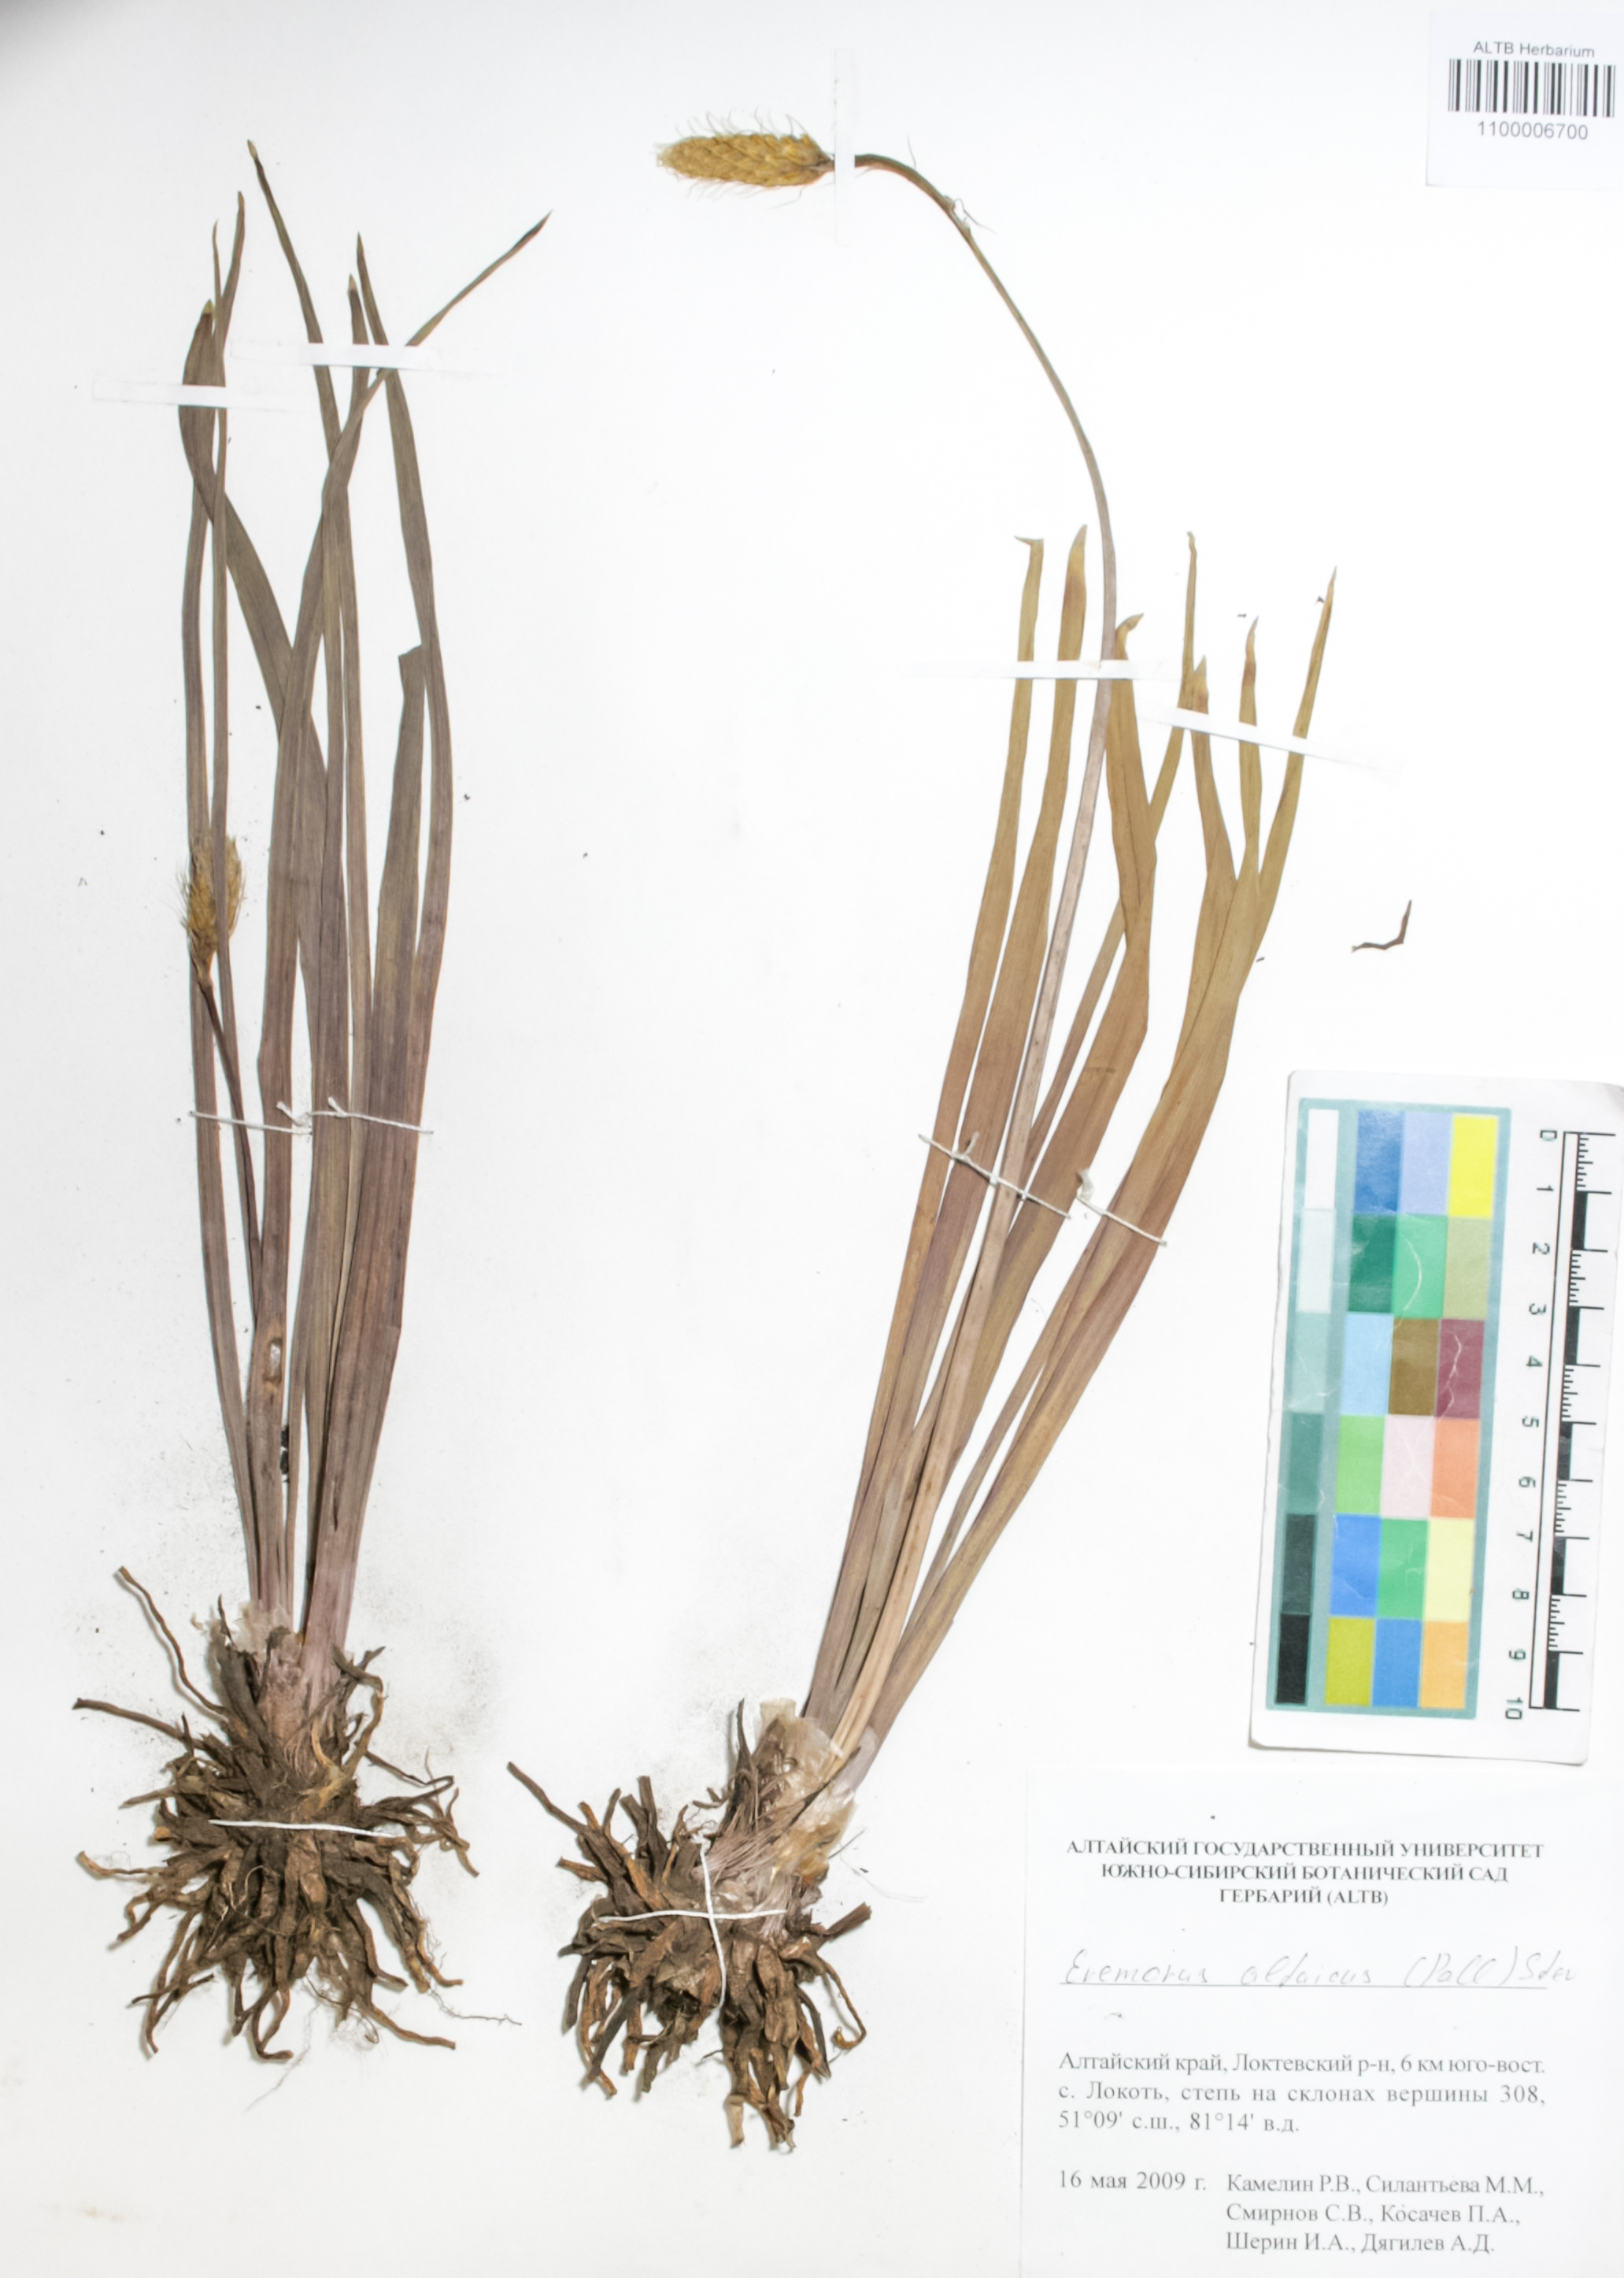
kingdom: Plantae
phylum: Tracheophyta
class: Liliopsida
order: Asparagales
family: Asphodelaceae
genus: Eremurus
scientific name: Eremurus altaicus
